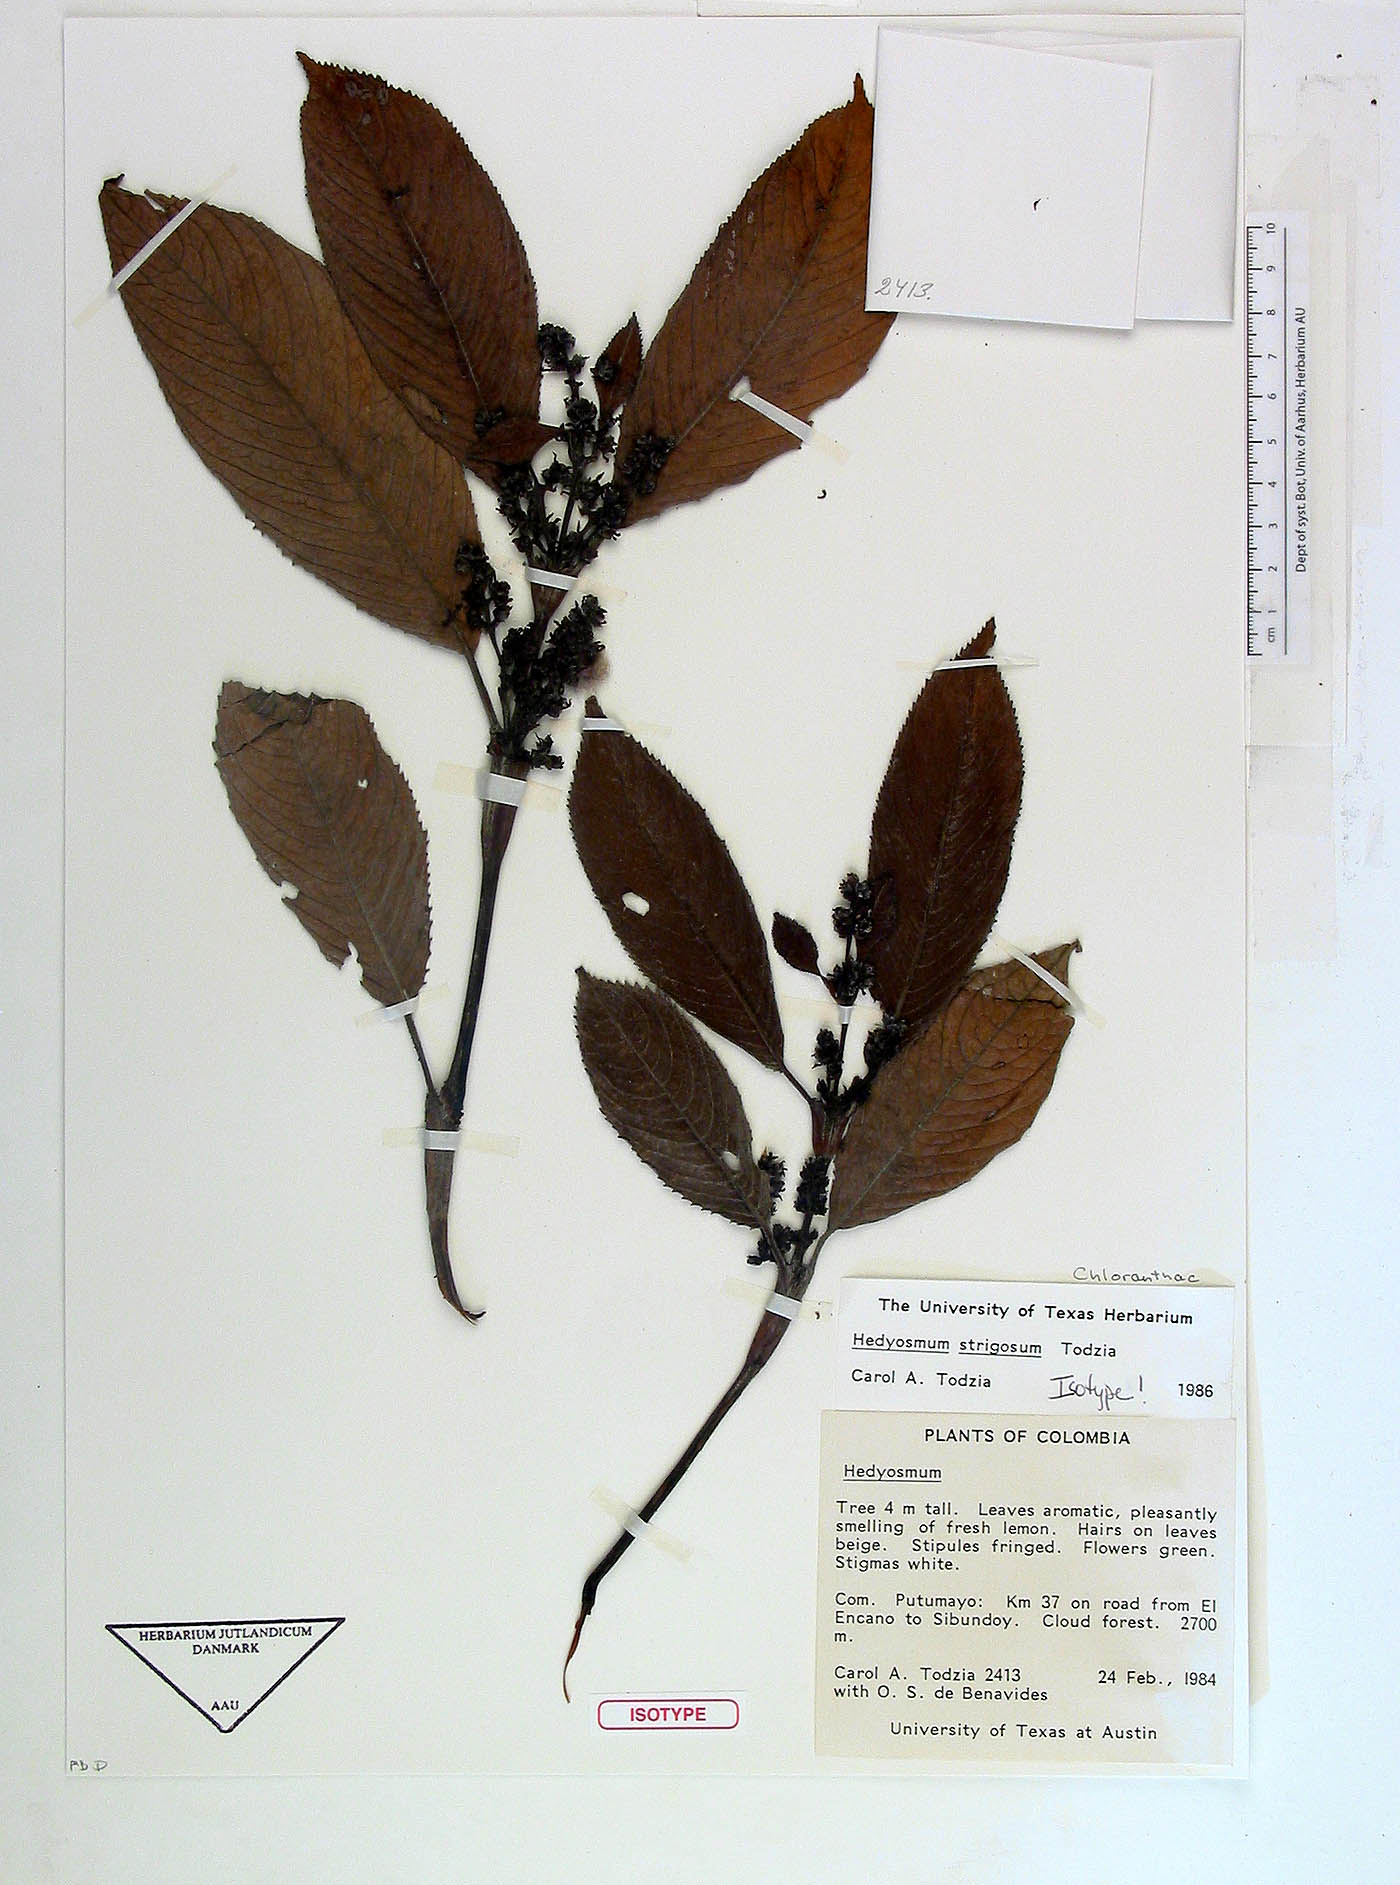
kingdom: Plantae
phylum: Tracheophyta
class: Magnoliopsida
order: Chloranthales
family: Chloranthaceae
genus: Hedyosmum
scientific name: Hedyosmum strigosum
